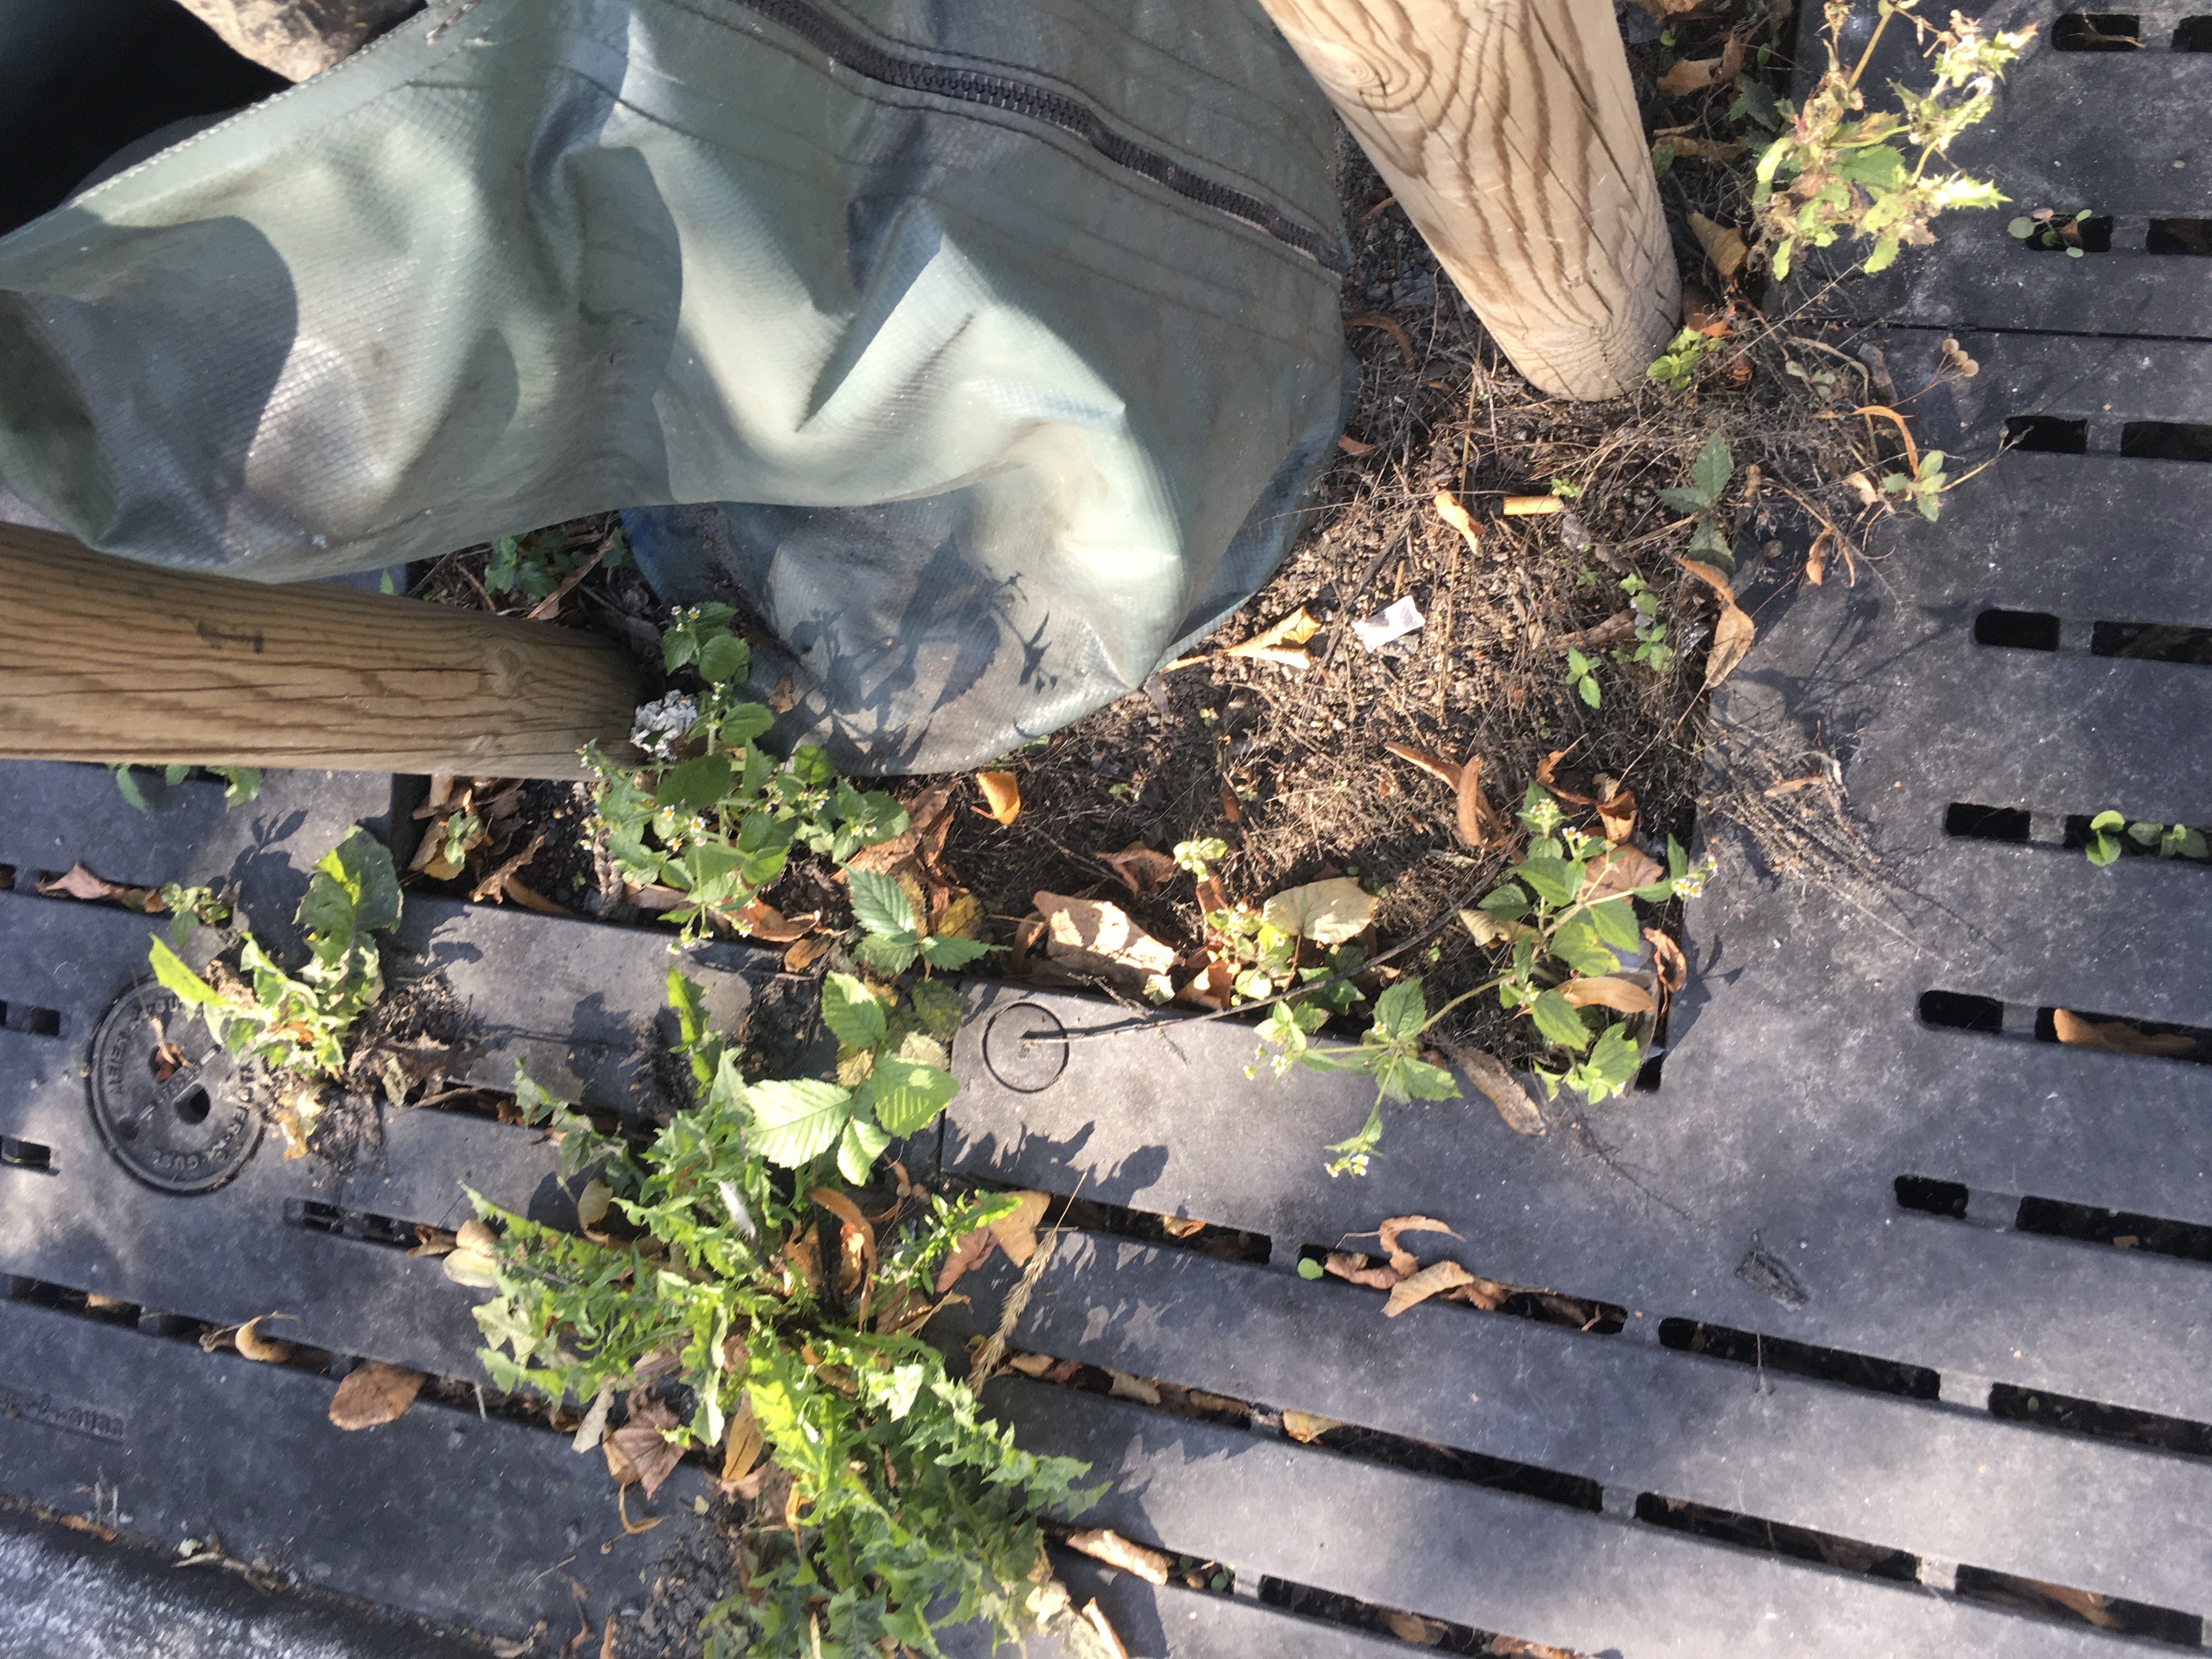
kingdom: Plantae
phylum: Tracheophyta
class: Magnoliopsida
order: Asterales
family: Asteraceae
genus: Galinsoga
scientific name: Galinsoga quadriradiata
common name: nesleskjellfrø
